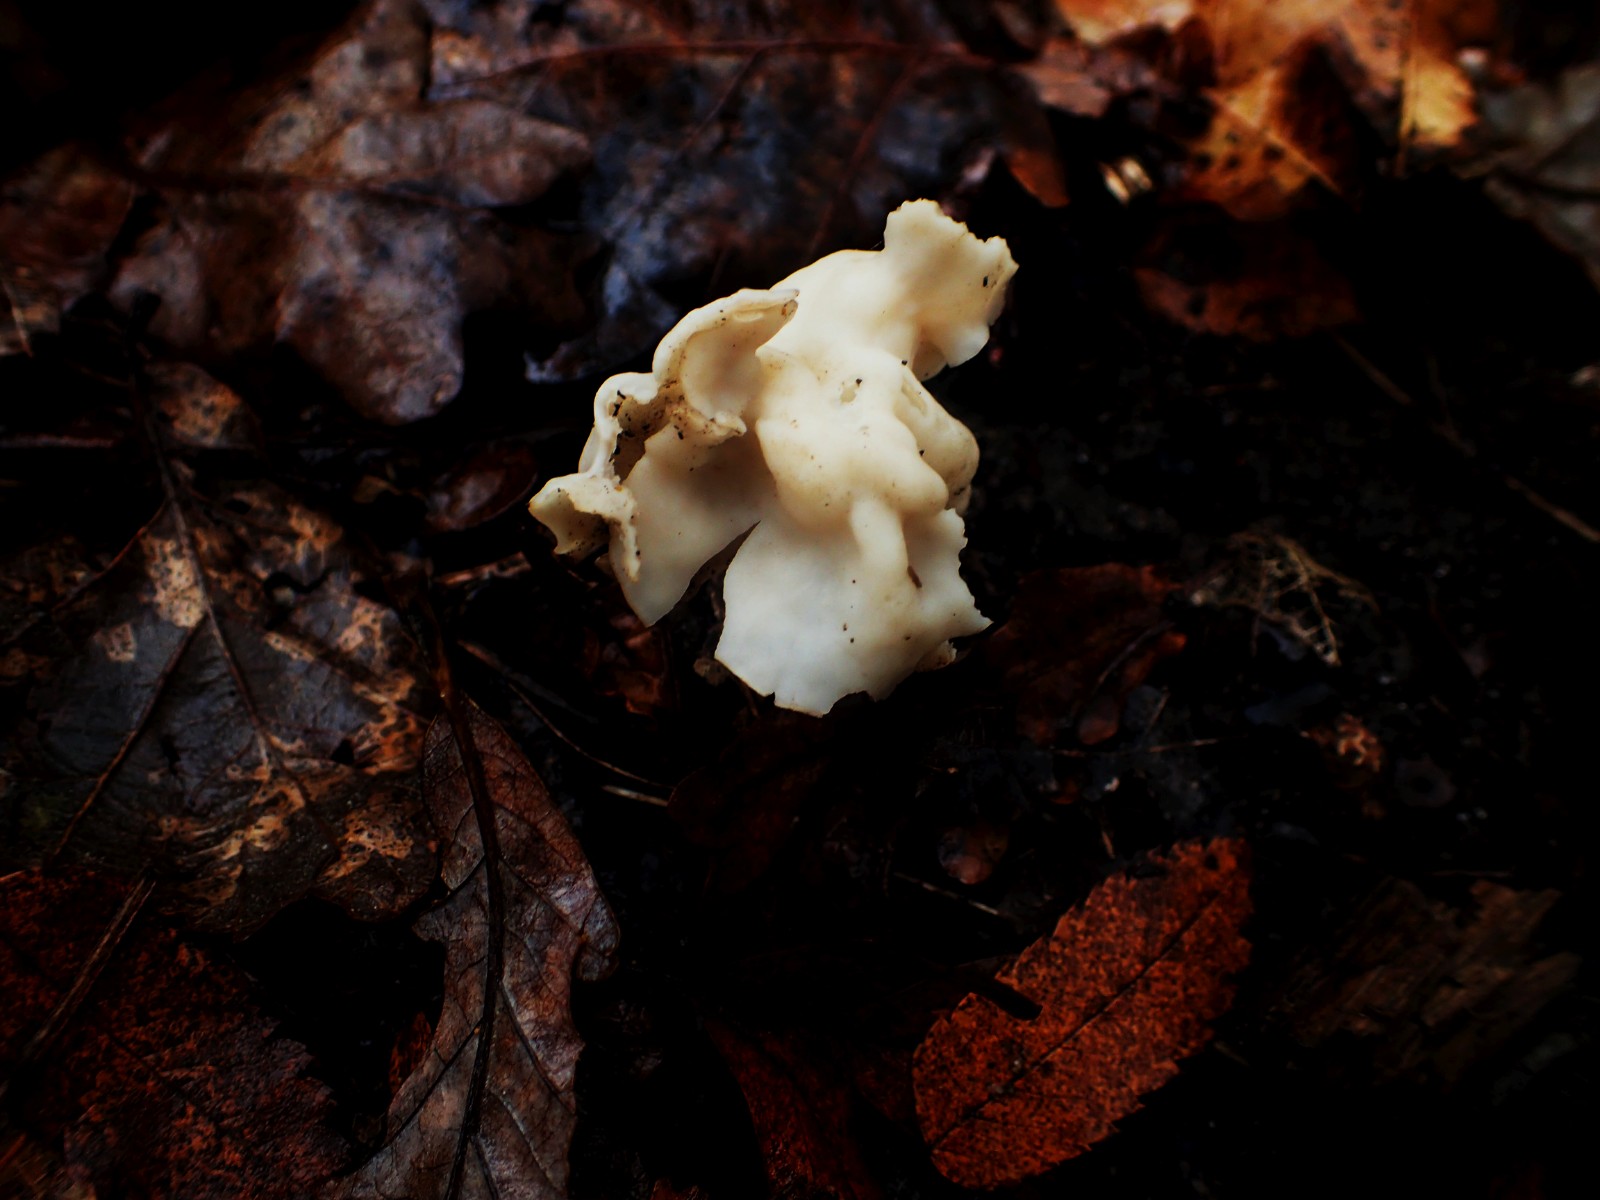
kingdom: Fungi
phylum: Ascomycota
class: Pezizomycetes
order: Pezizales
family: Helvellaceae
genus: Helvella
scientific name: Helvella crispa
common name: kruset foldhat
